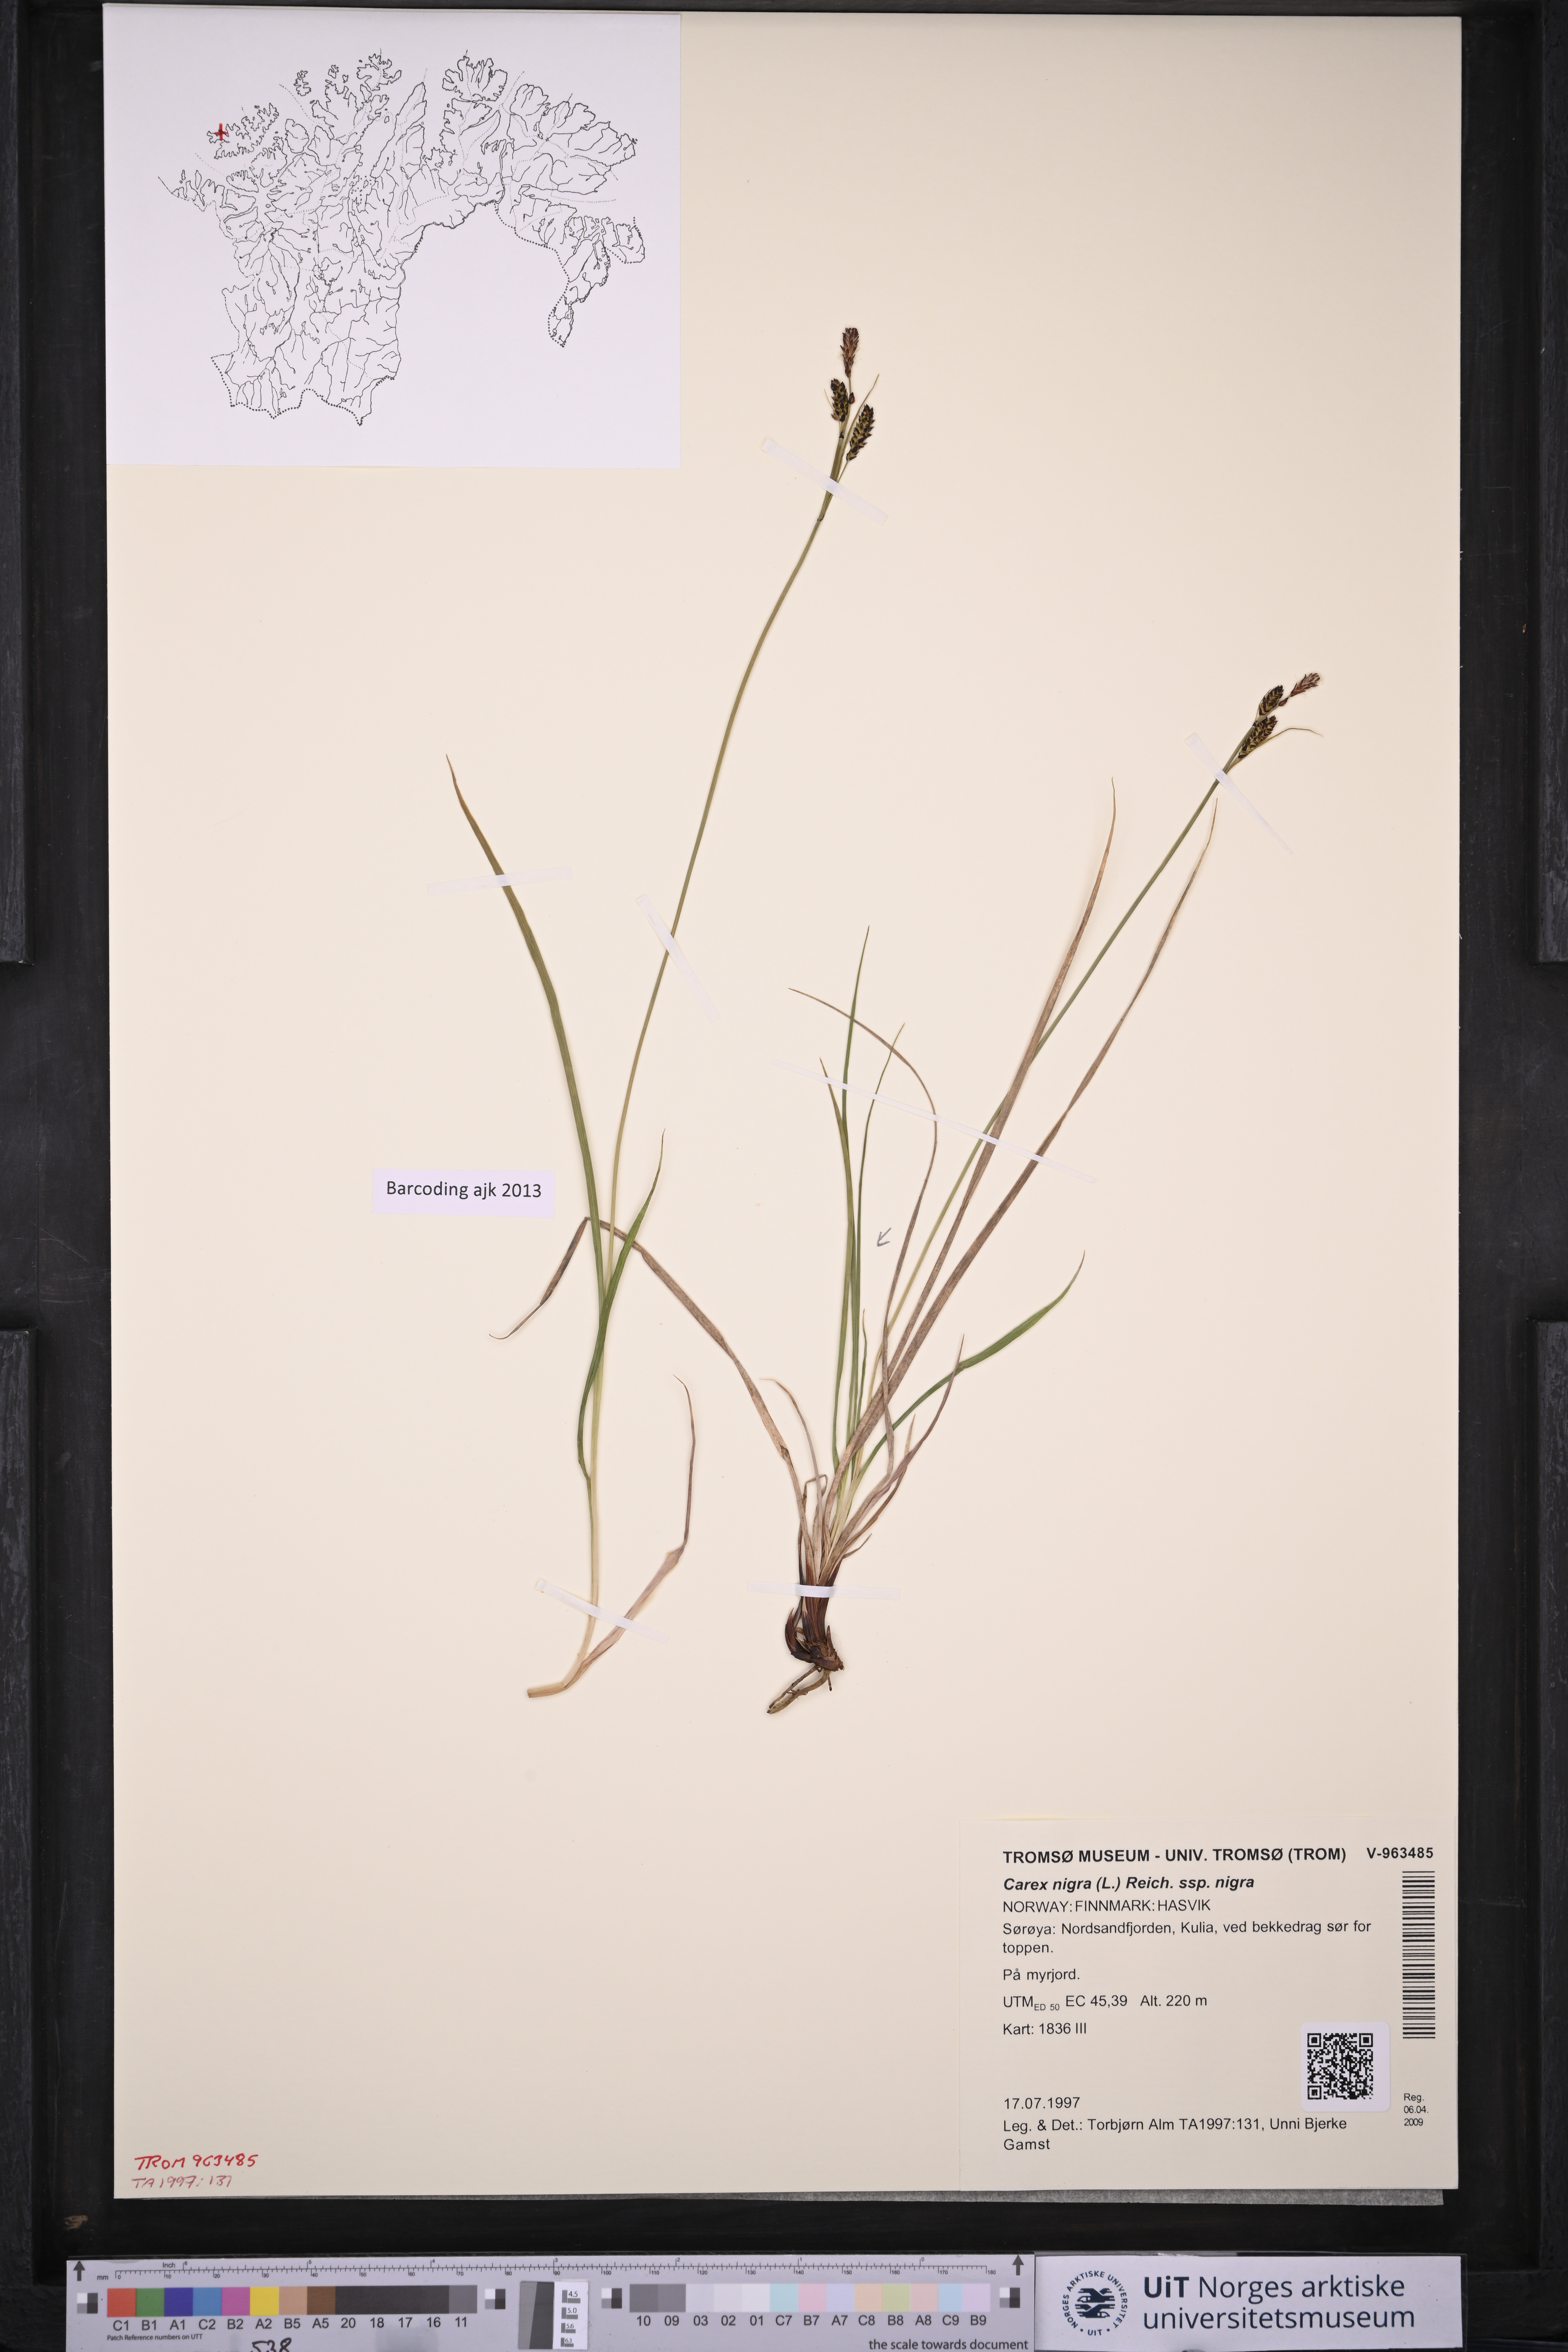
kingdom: Plantae
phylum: Tracheophyta
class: Liliopsida
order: Poales
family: Cyperaceae
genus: Carex
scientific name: Carex nigra
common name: Common sedge
